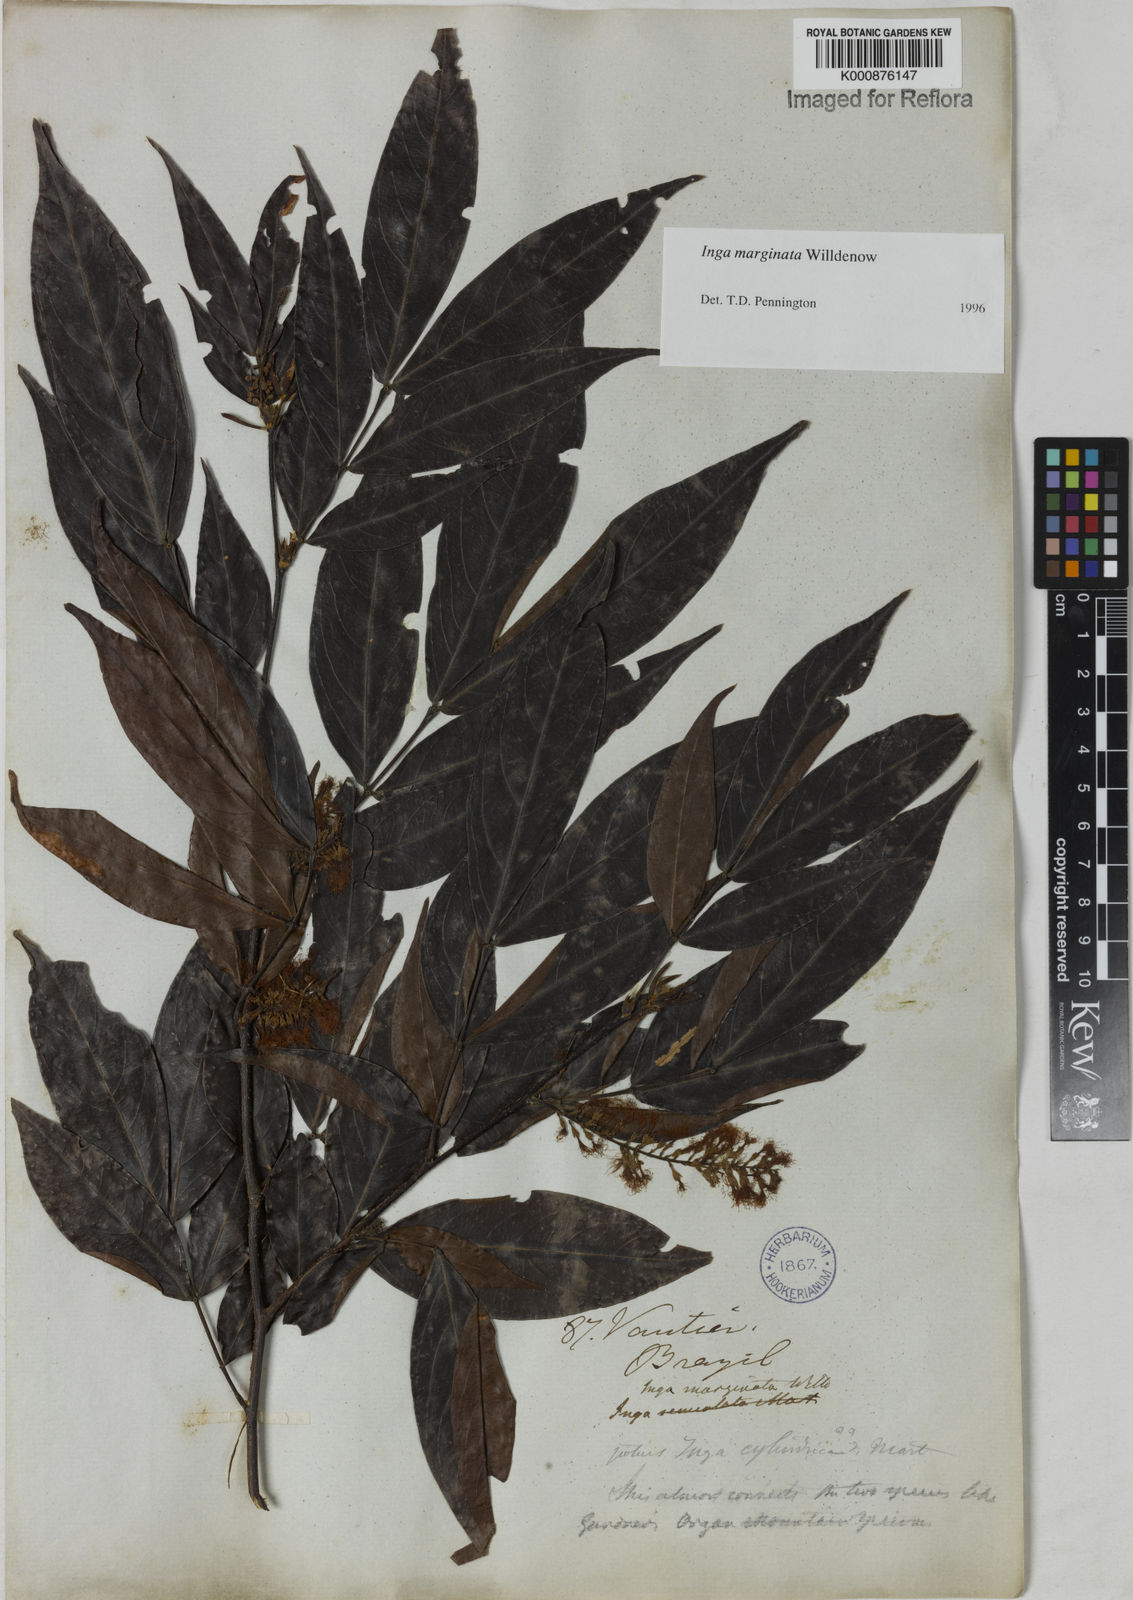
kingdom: Plantae
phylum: Tracheophyta
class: Magnoliopsida
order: Fabales
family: Fabaceae
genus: Inga
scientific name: Inga marginata
